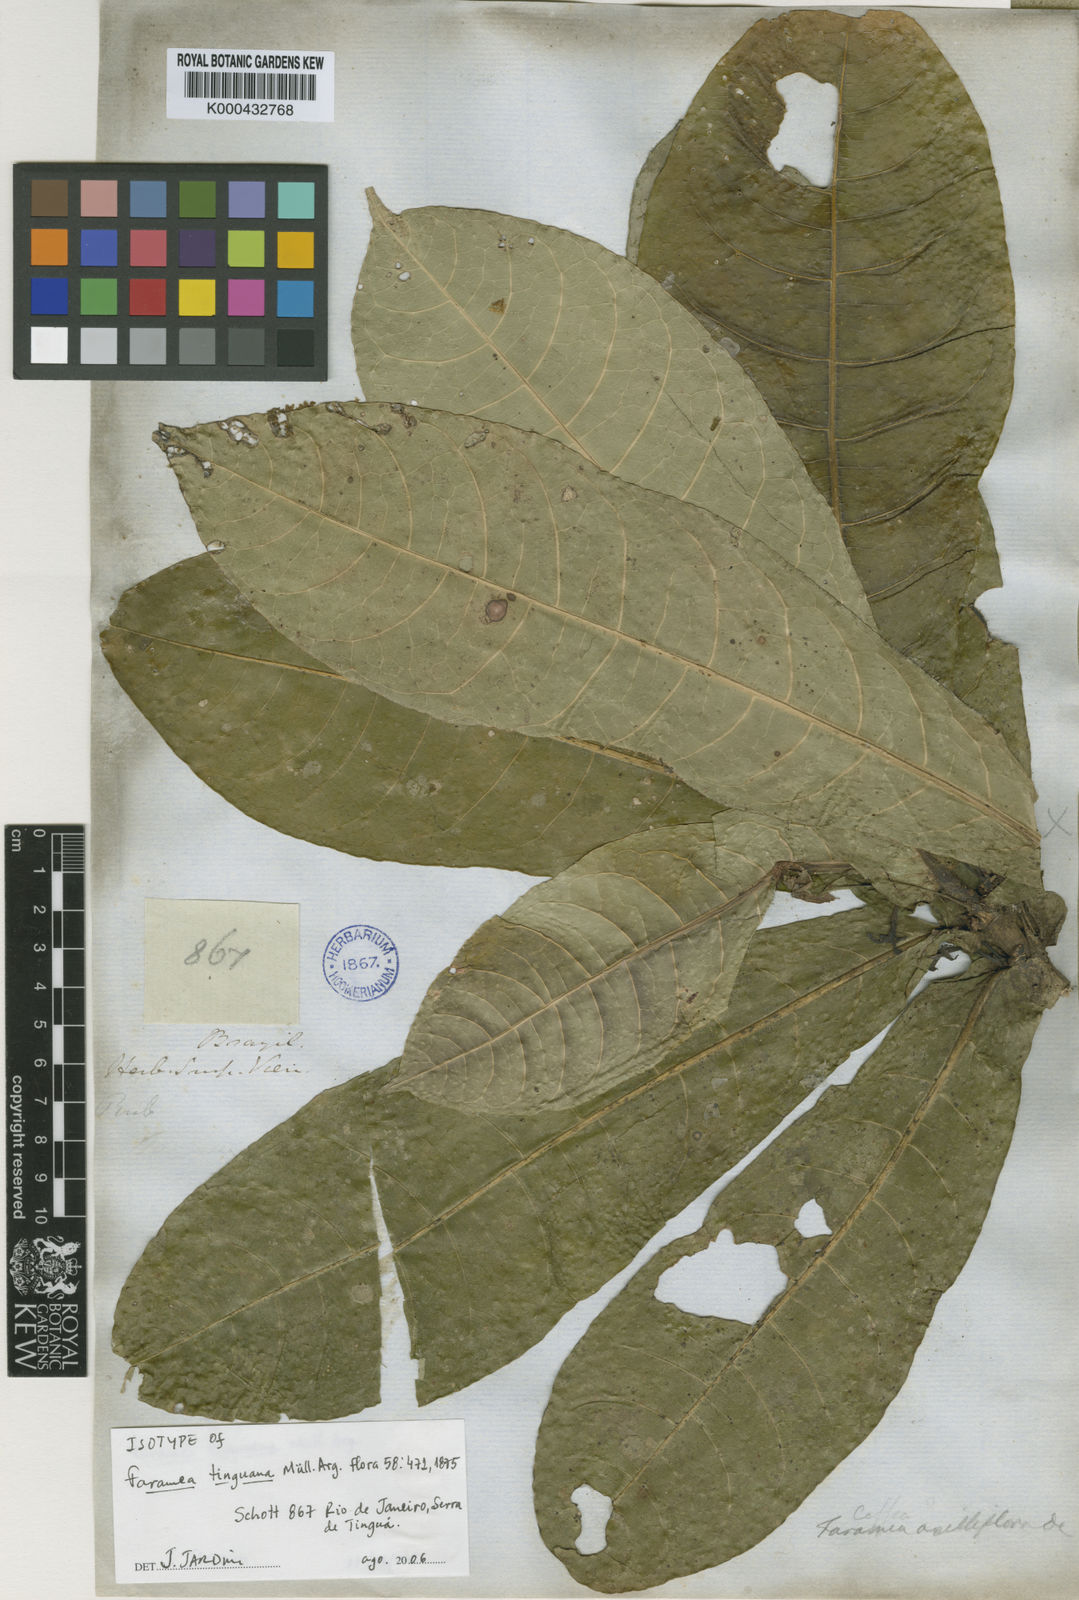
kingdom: Plantae
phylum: Tracheophyta
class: Magnoliopsida
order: Gentianales
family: Rubiaceae
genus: Faramea
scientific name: Faramea
